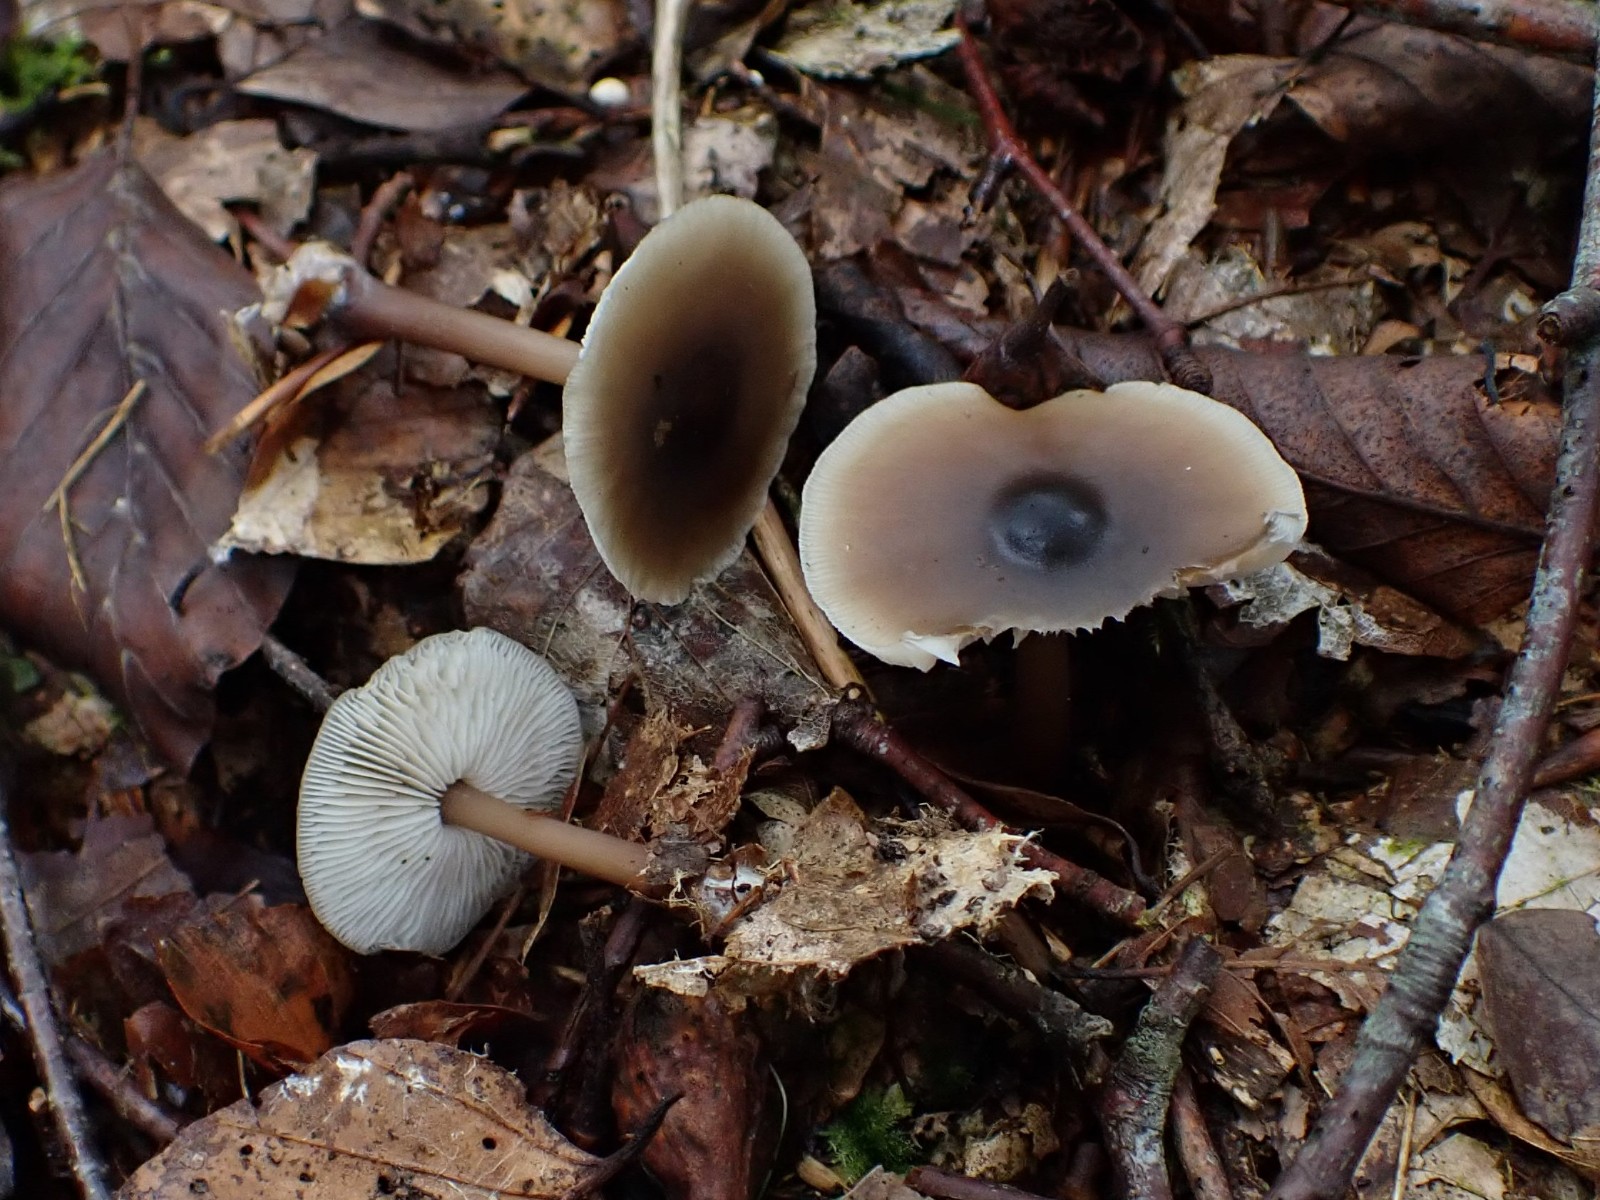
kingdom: Fungi
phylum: Basidiomycota
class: Agaricomycetes
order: Agaricales
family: Omphalotaceae
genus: Rhodocollybia
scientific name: Rhodocollybia asema
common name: horngrå fladhat
